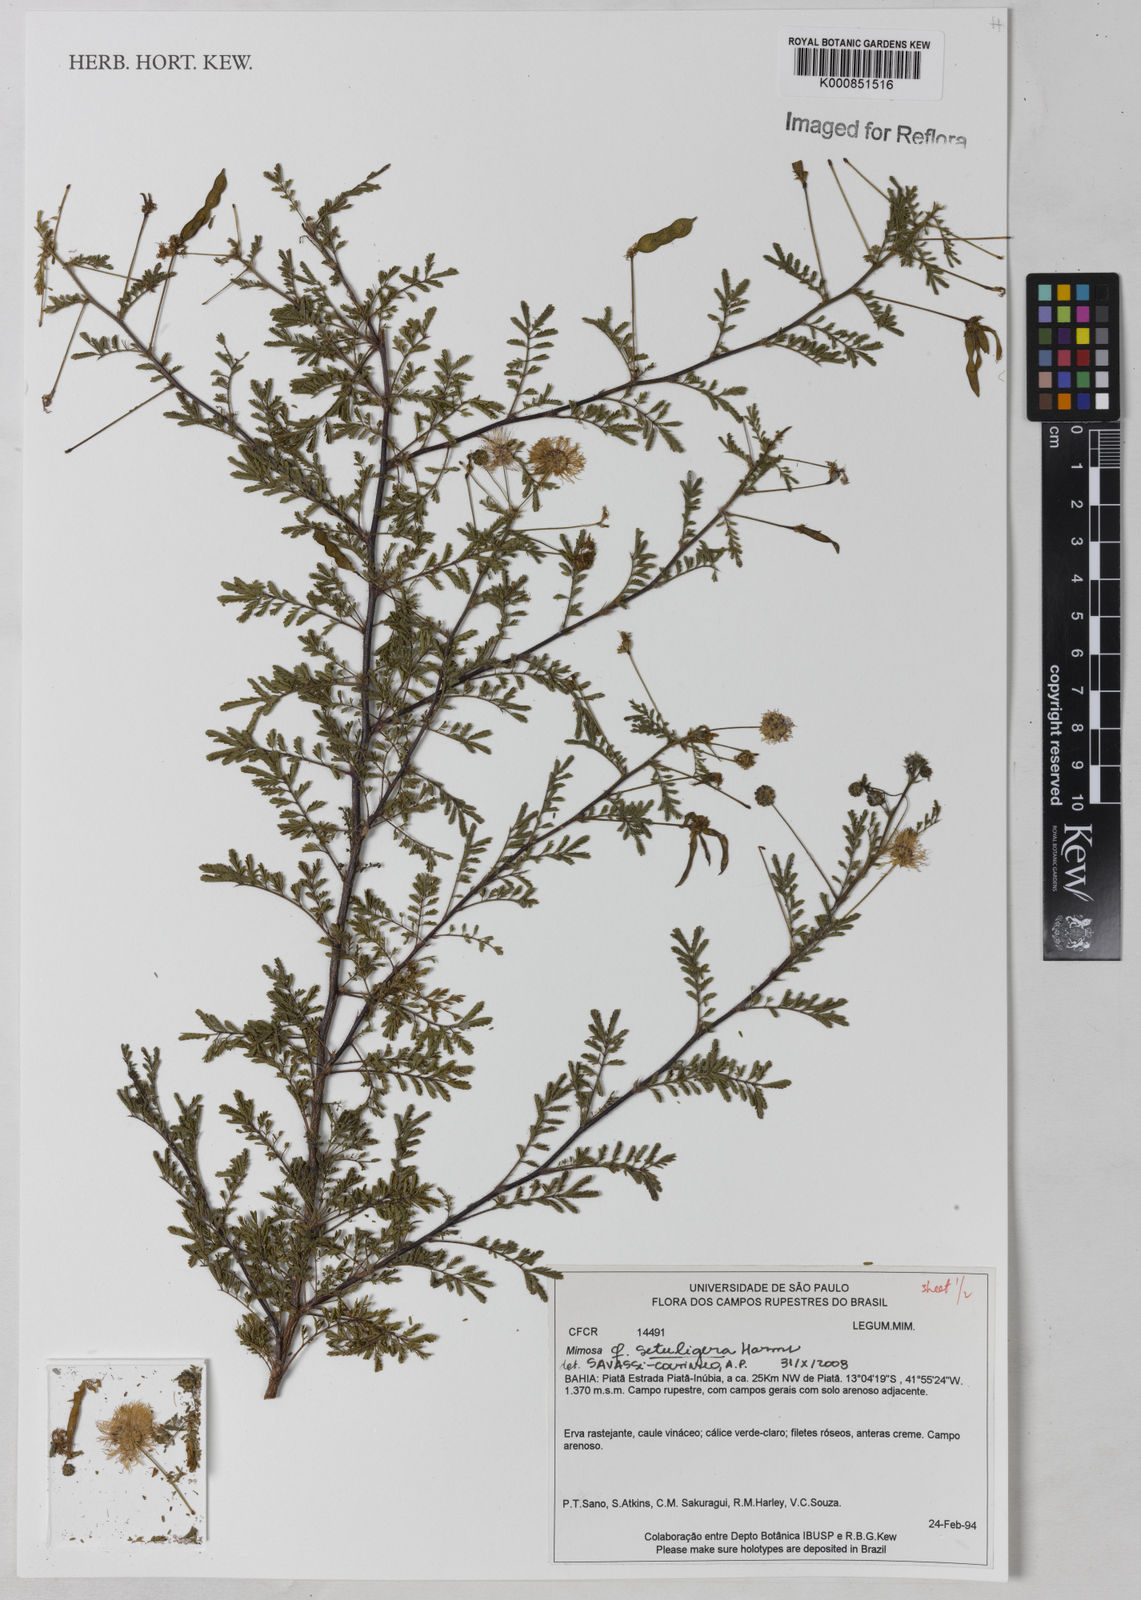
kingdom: Plantae
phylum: Tracheophyta
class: Magnoliopsida
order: Fabales
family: Fabaceae
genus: Mimosa
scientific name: Mimosa setuligera
